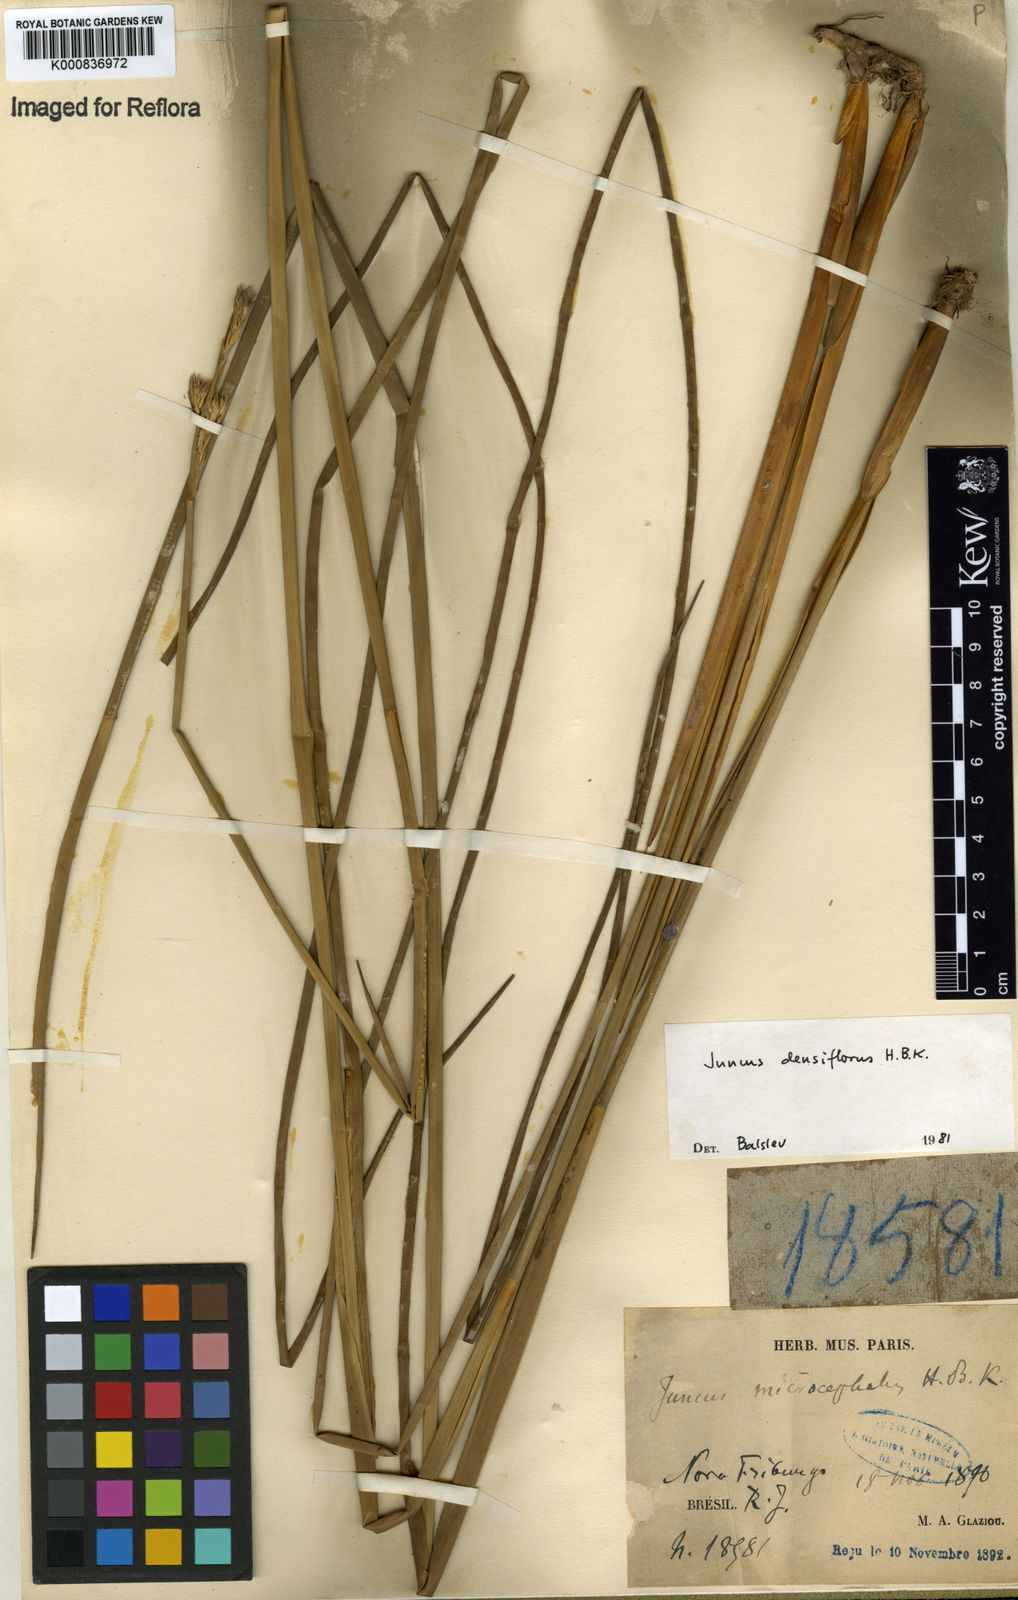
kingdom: Plantae
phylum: Tracheophyta
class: Liliopsida
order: Poales
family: Juncaceae
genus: Juncus
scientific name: Juncus densiflorus
